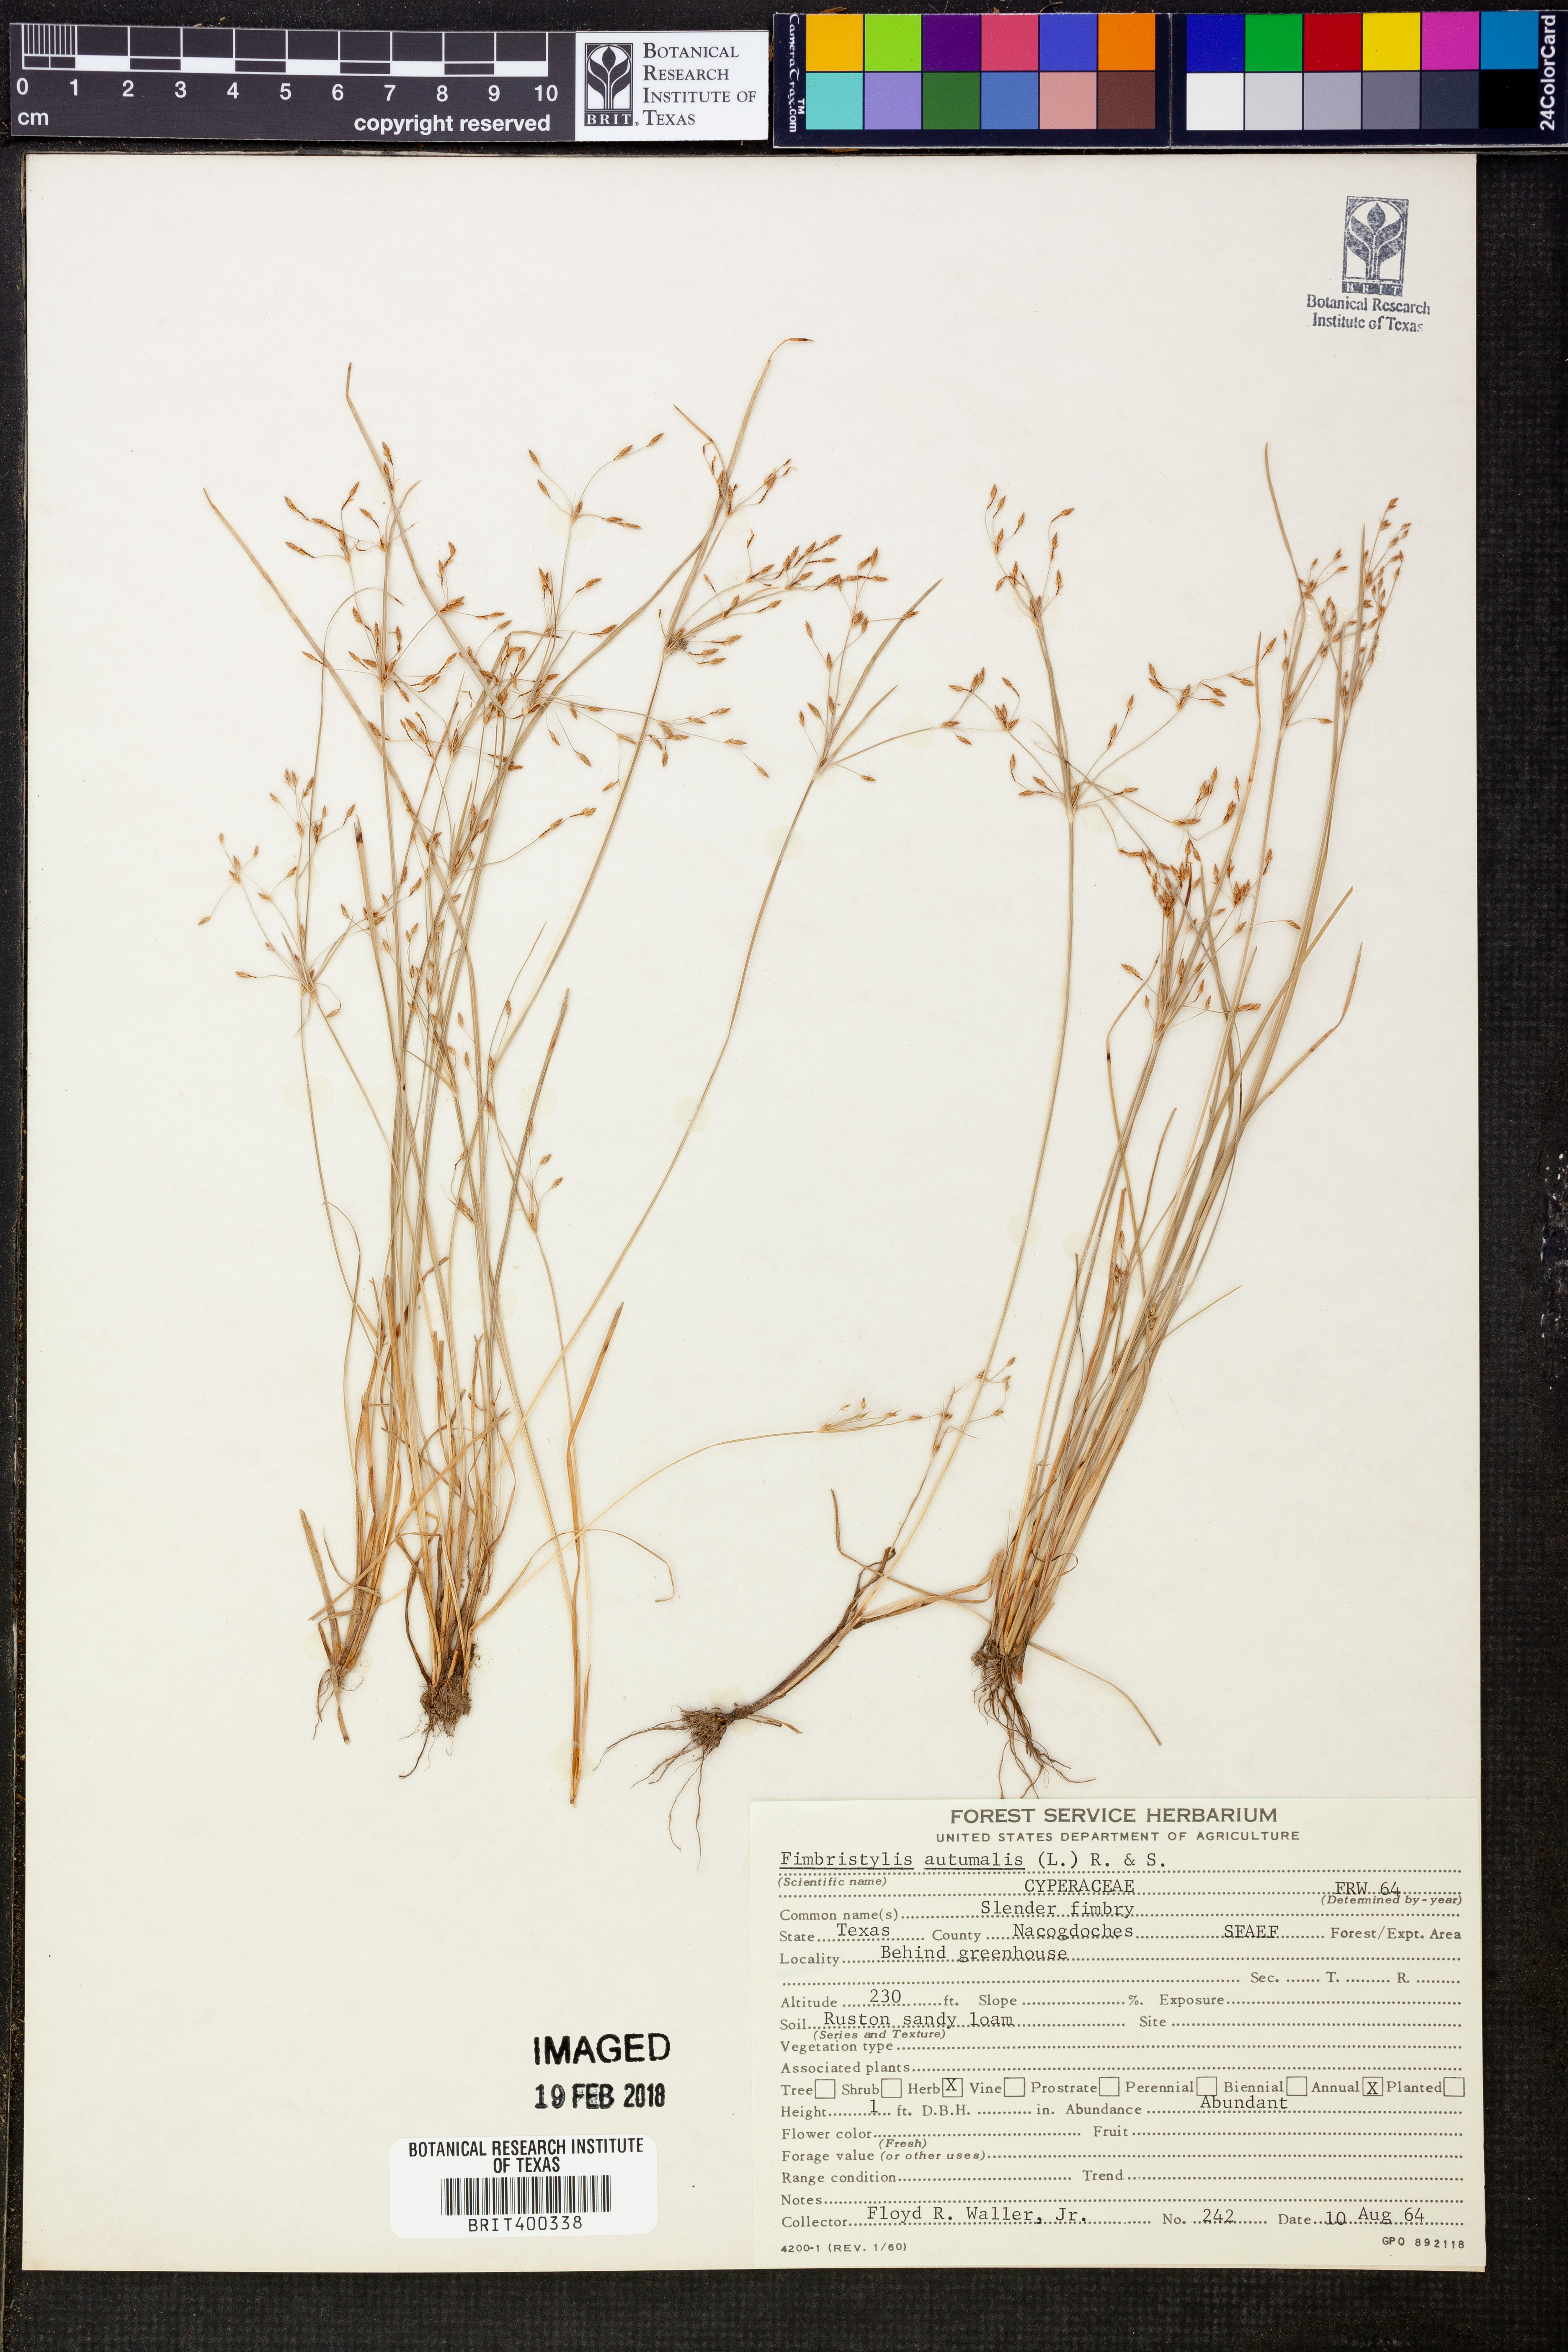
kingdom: Plantae
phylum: Tracheophyta
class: Liliopsida
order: Poales
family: Cyperaceae
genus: Fimbristylis
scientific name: Fimbristylis autumnalis
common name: Slender fimbristylis
